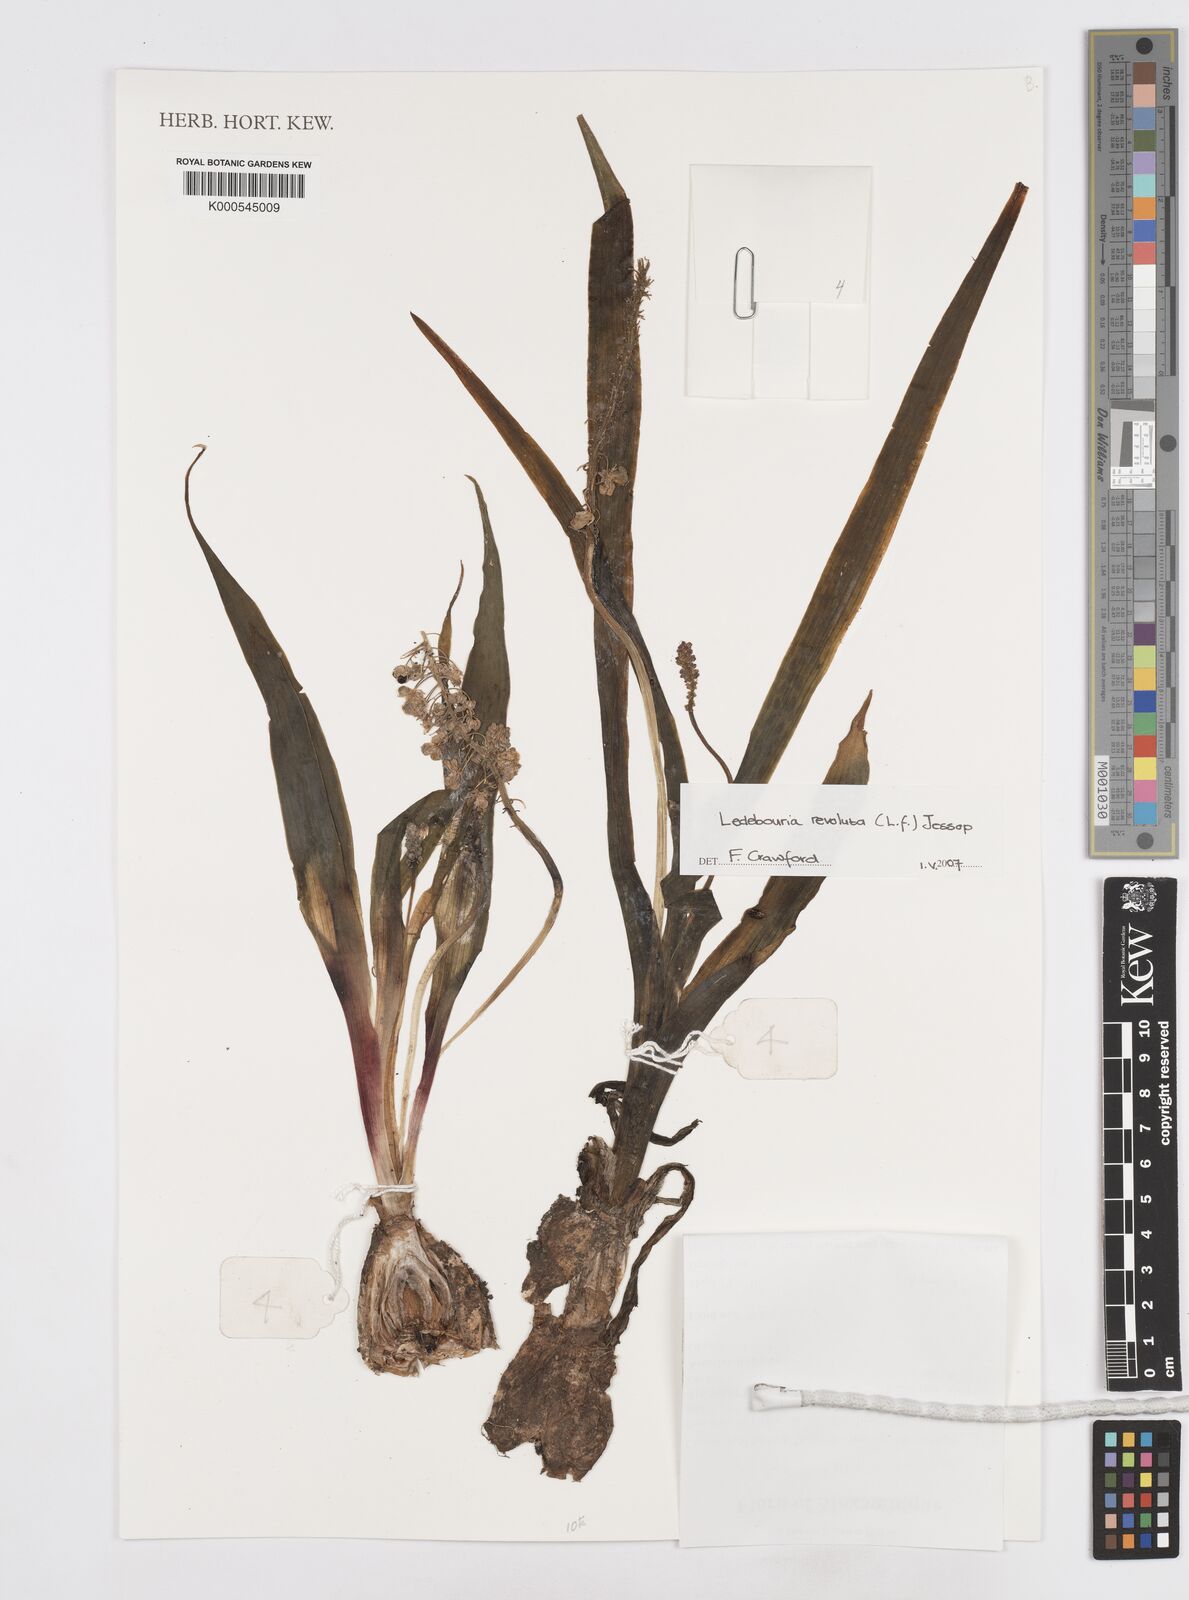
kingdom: Plantae
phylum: Tracheophyta
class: Liliopsida
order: Asparagales
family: Asparagaceae
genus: Ledebouria
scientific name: Ledebouria revoluta
